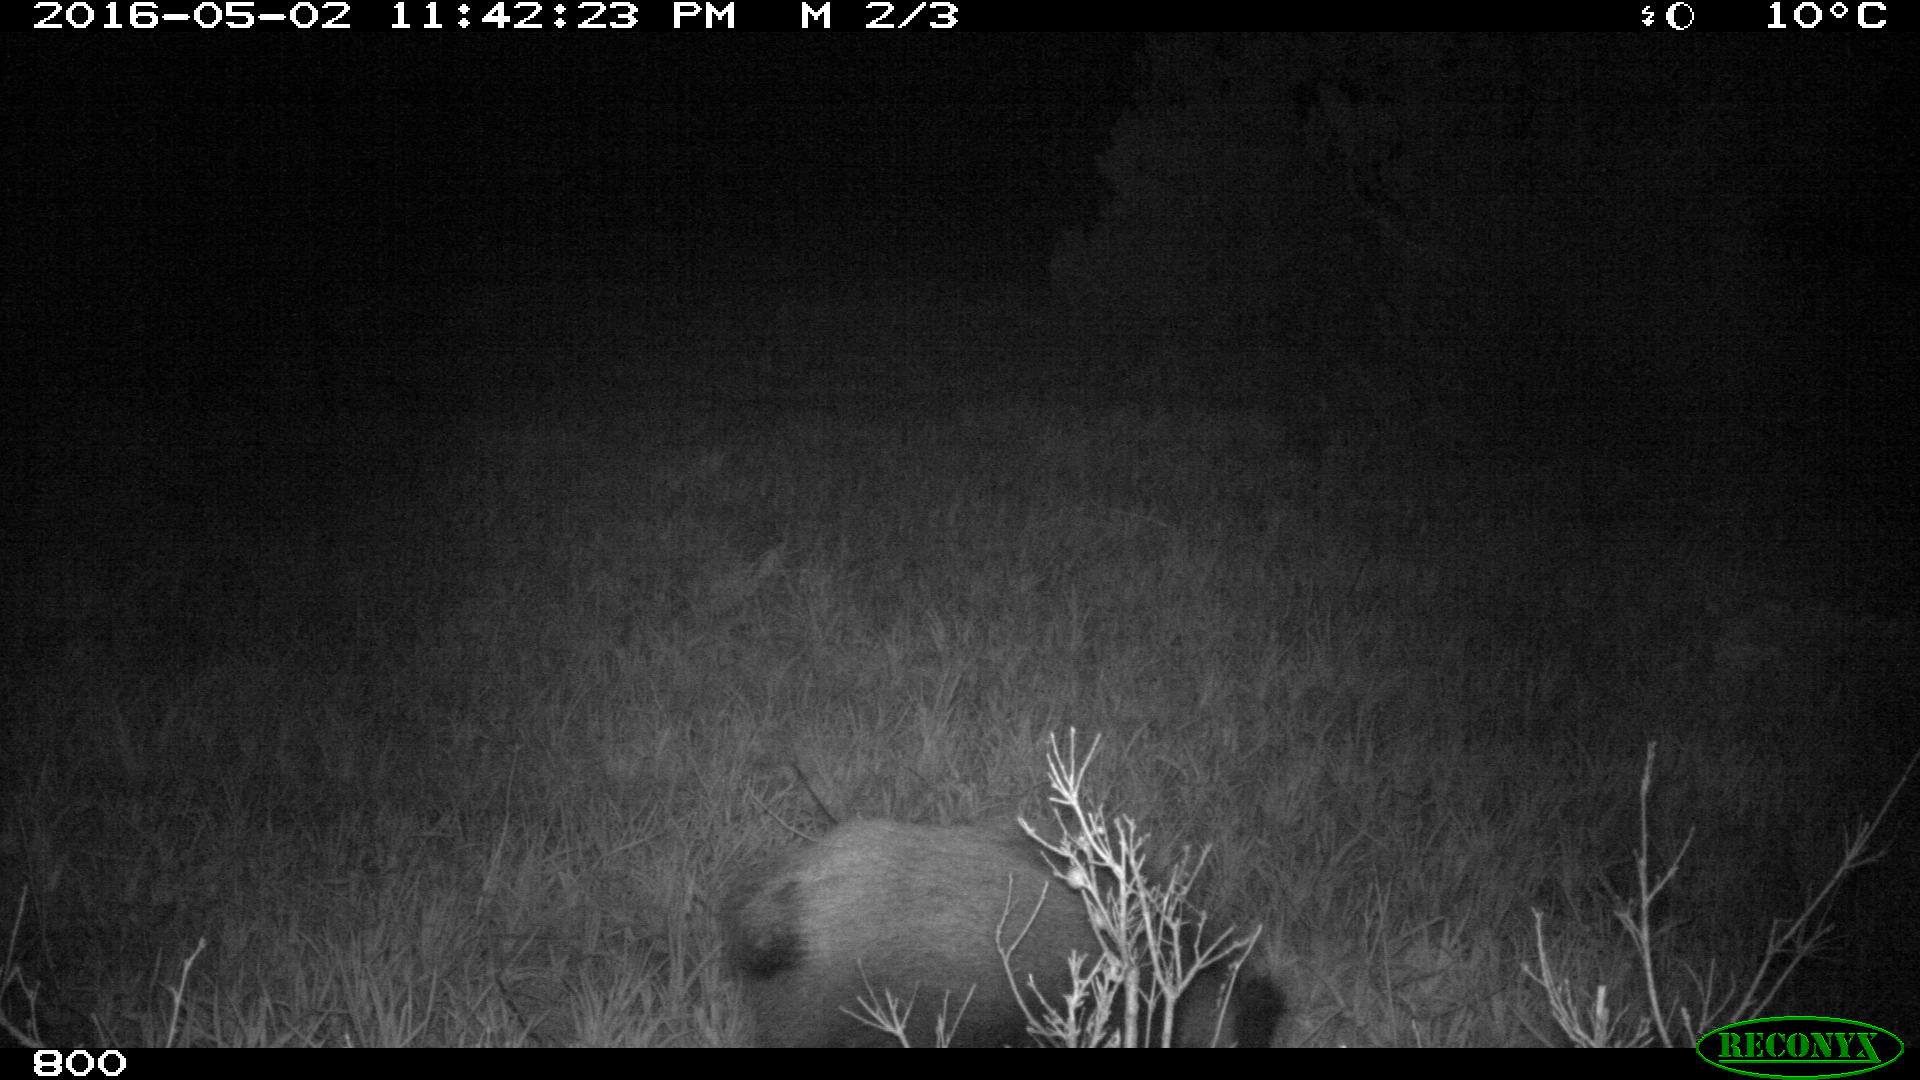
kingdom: Animalia
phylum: Chordata
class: Mammalia
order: Artiodactyla
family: Suidae
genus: Sus
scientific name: Sus scrofa
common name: Wild boar
